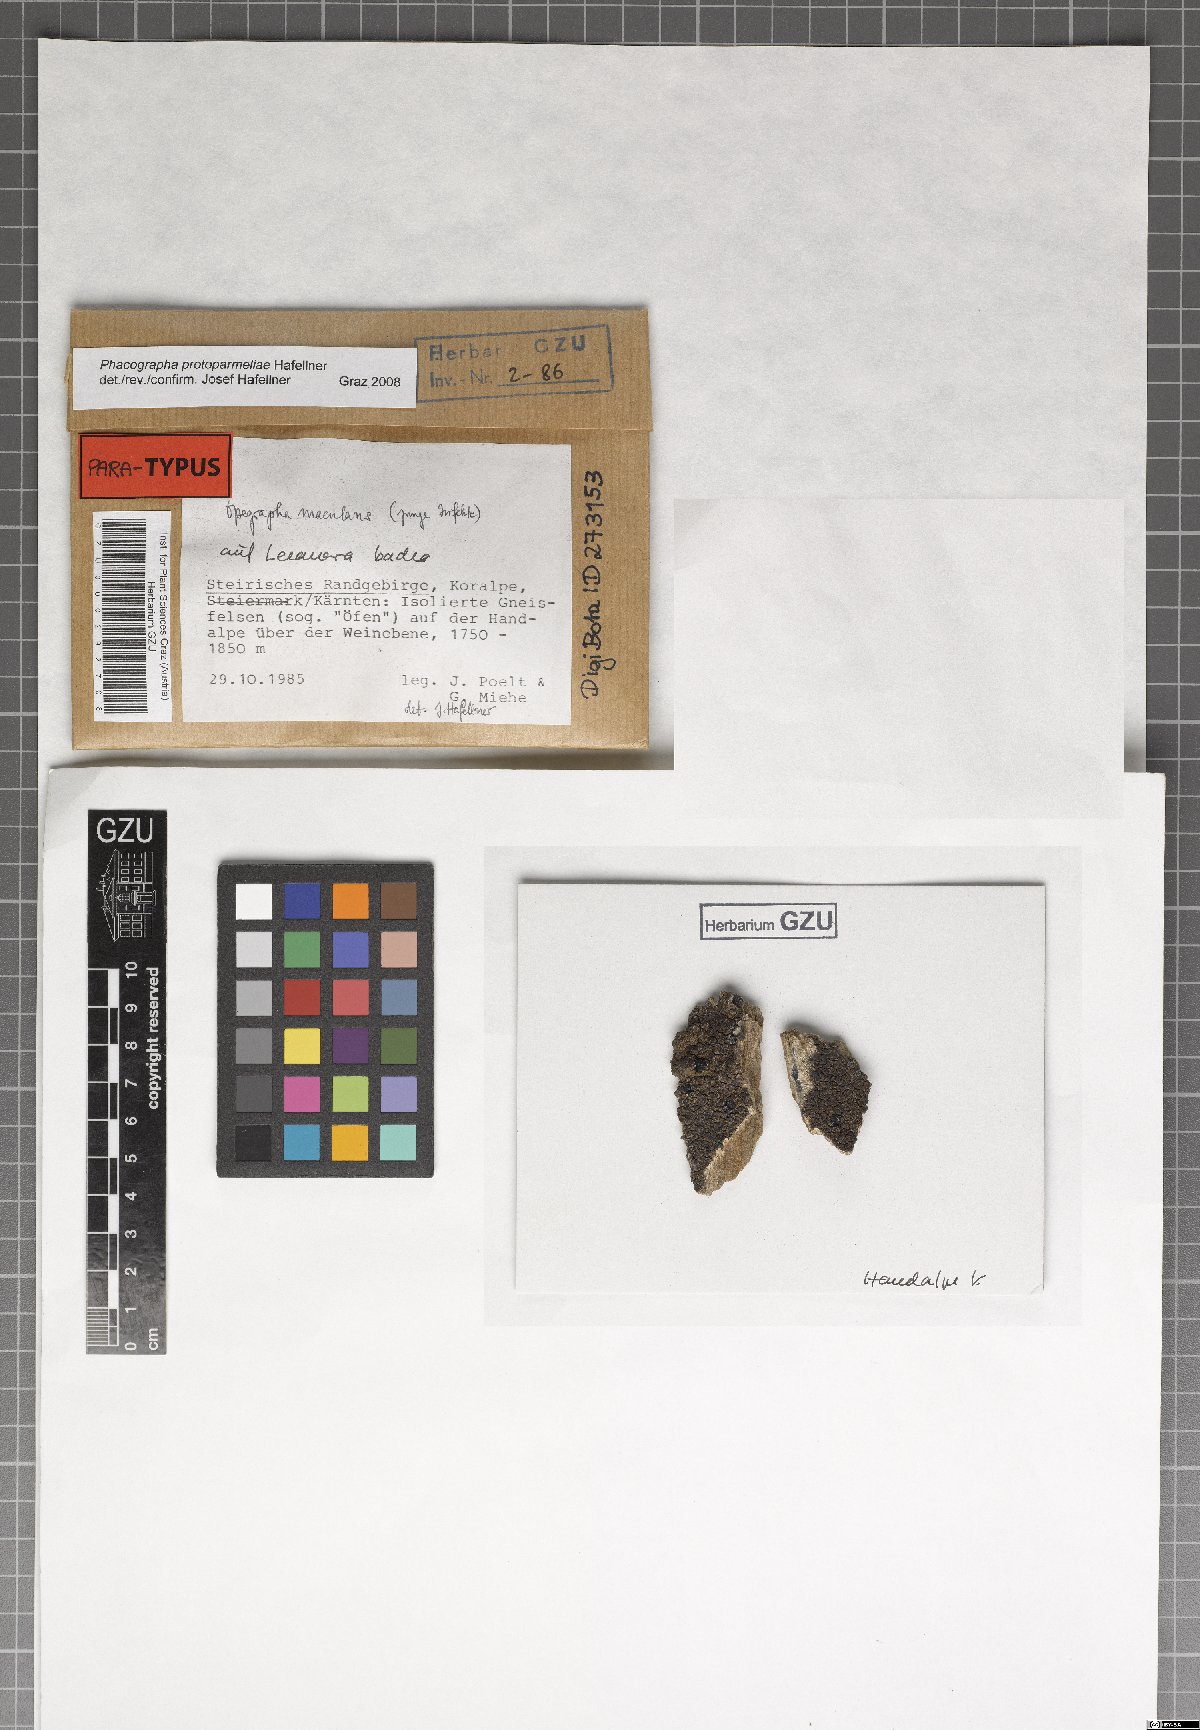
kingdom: Fungi
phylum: Ascomycota
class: Arthoniomycetes
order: Arthoniales
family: Roccellaceae
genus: Phacographa
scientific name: Phacographa protoparmeliae
